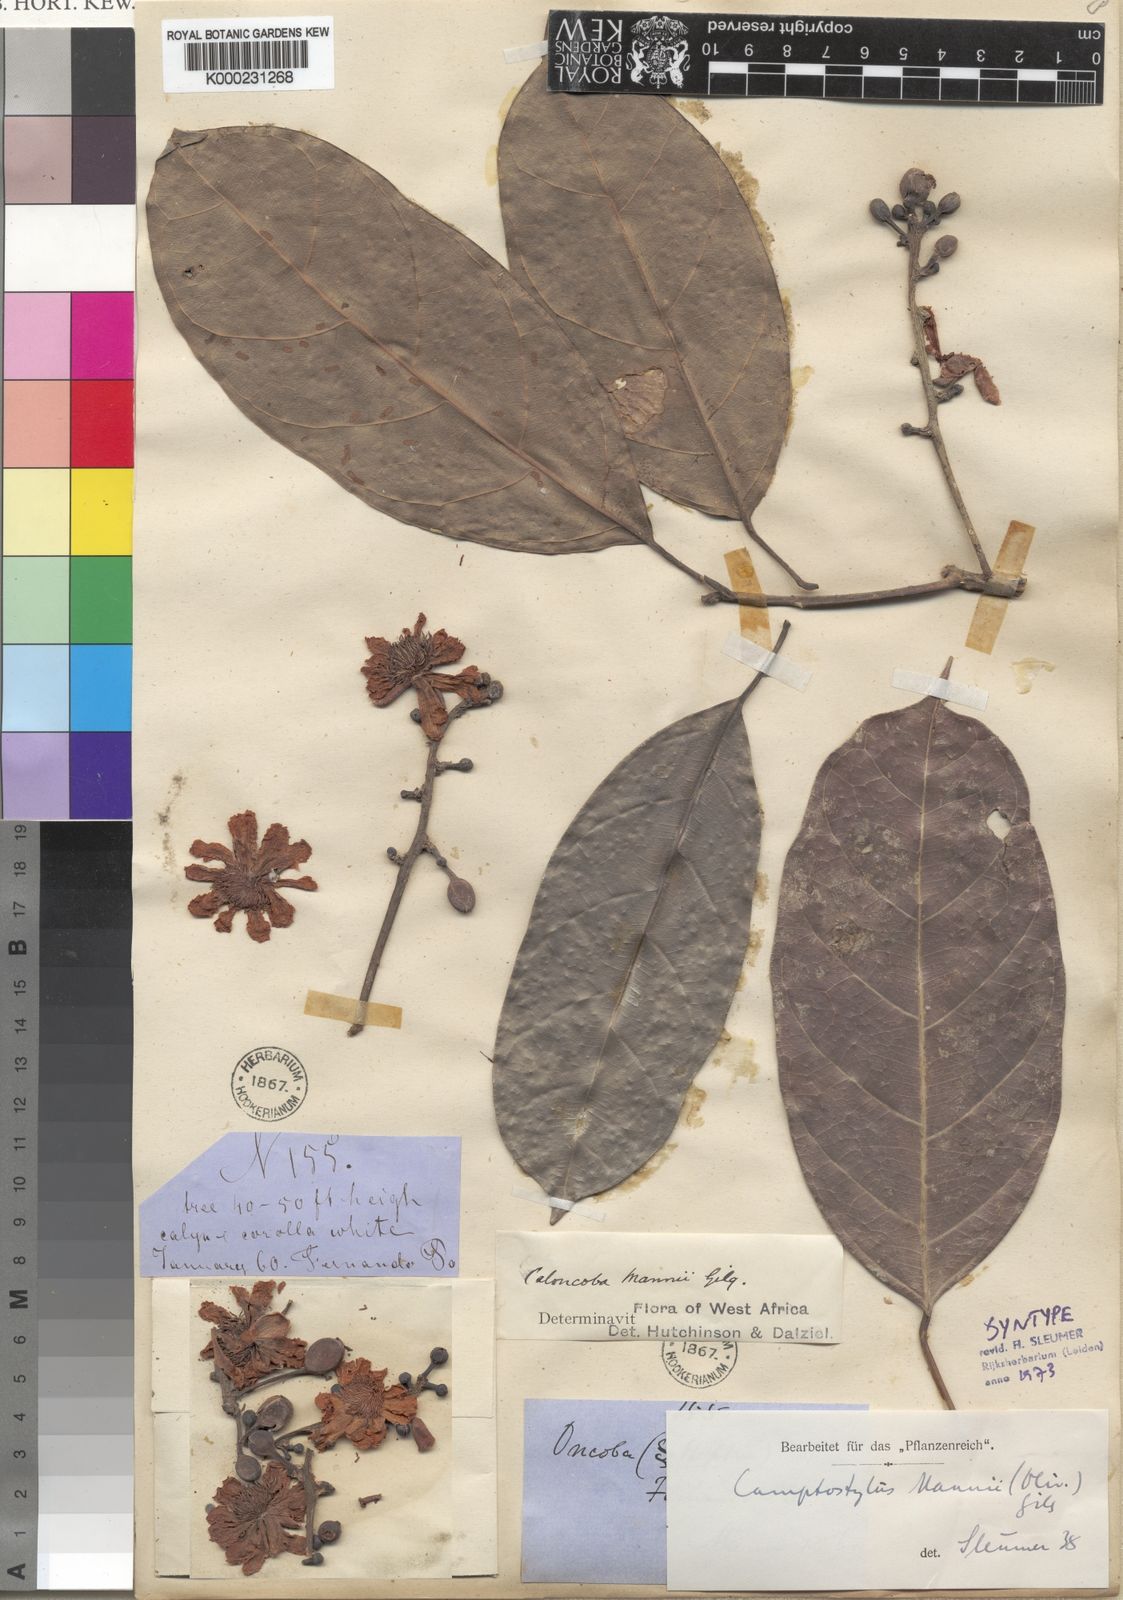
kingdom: Plantae
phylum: Tracheophyta
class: Magnoliopsida
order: Malpighiales
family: Achariaceae
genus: Camptostylus
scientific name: Camptostylus mannii
